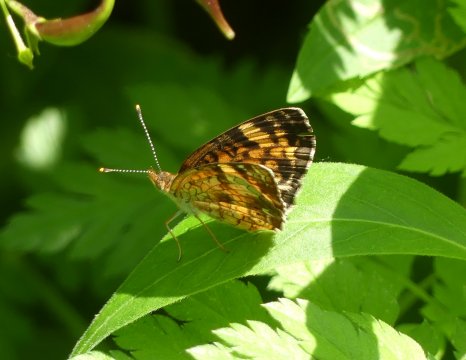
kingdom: Animalia
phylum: Arthropoda
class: Insecta
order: Lepidoptera
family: Nymphalidae
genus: Phyciodes
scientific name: Phyciodes tharos
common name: Northern Crescent
